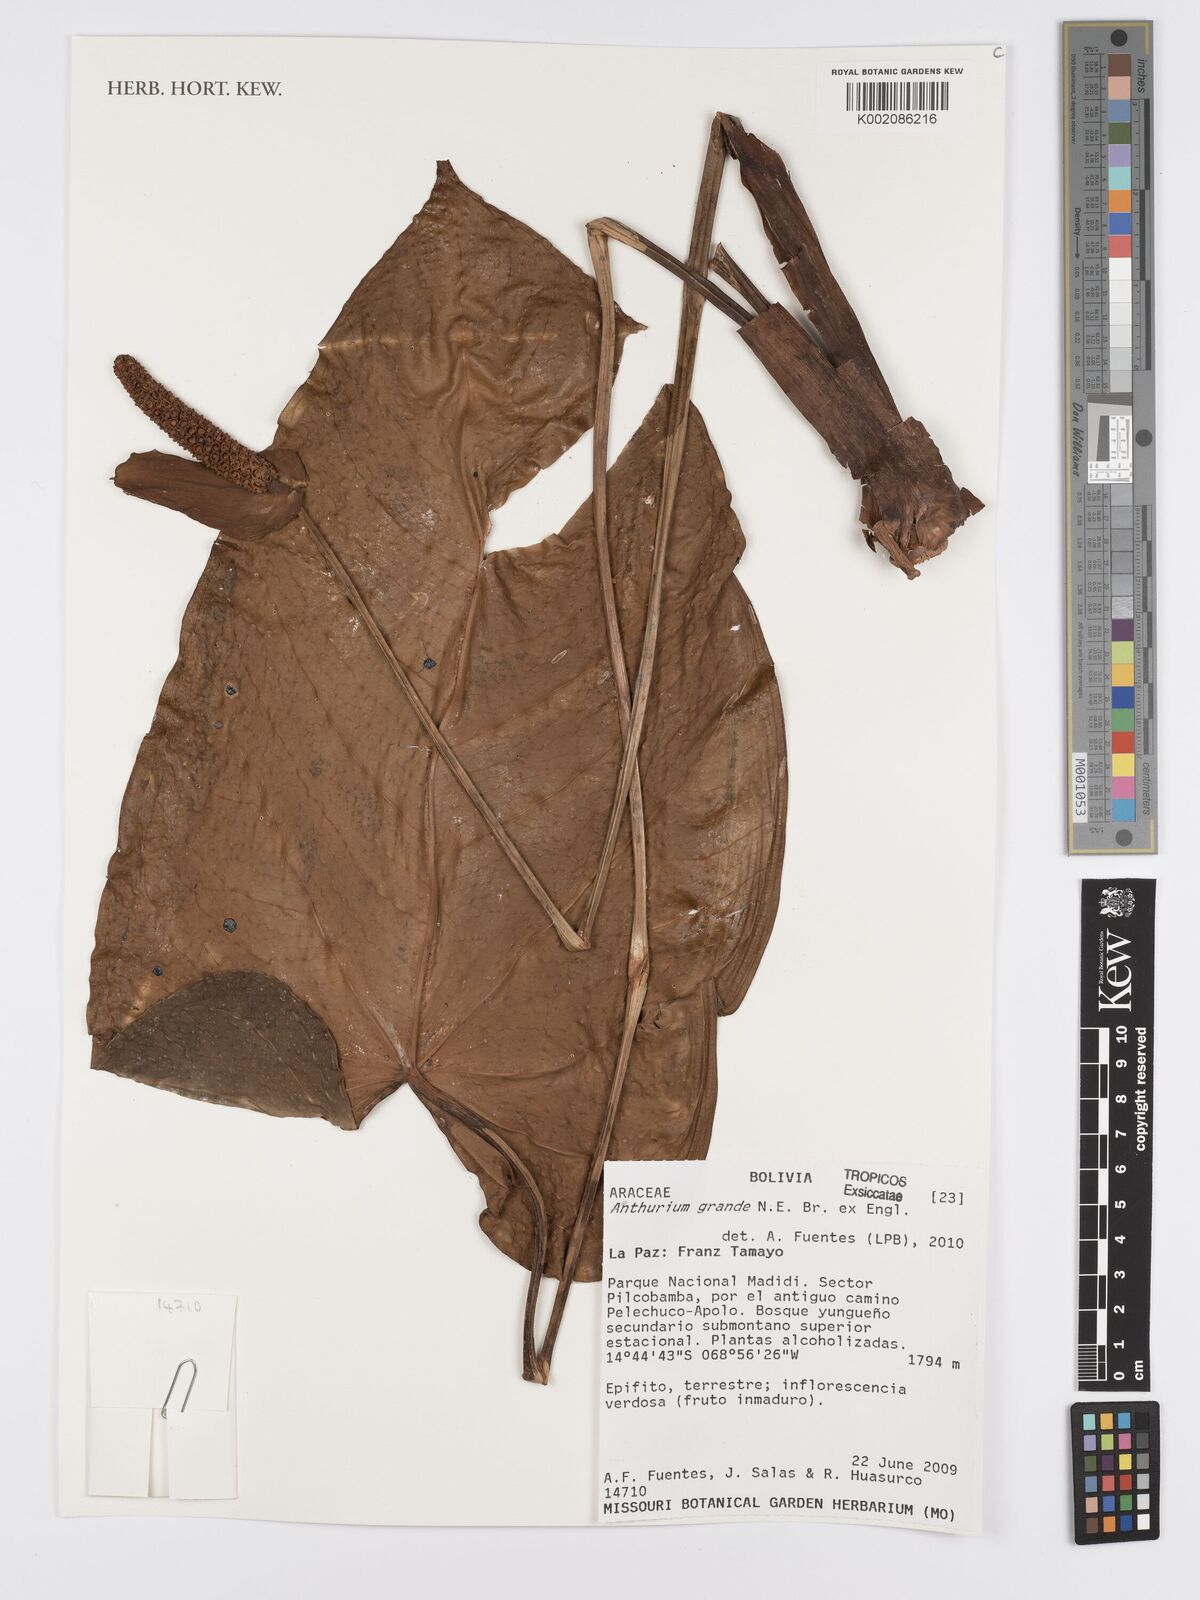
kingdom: Plantae
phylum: Tracheophyta
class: Liliopsida
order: Alismatales
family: Araceae
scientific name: Araceae
